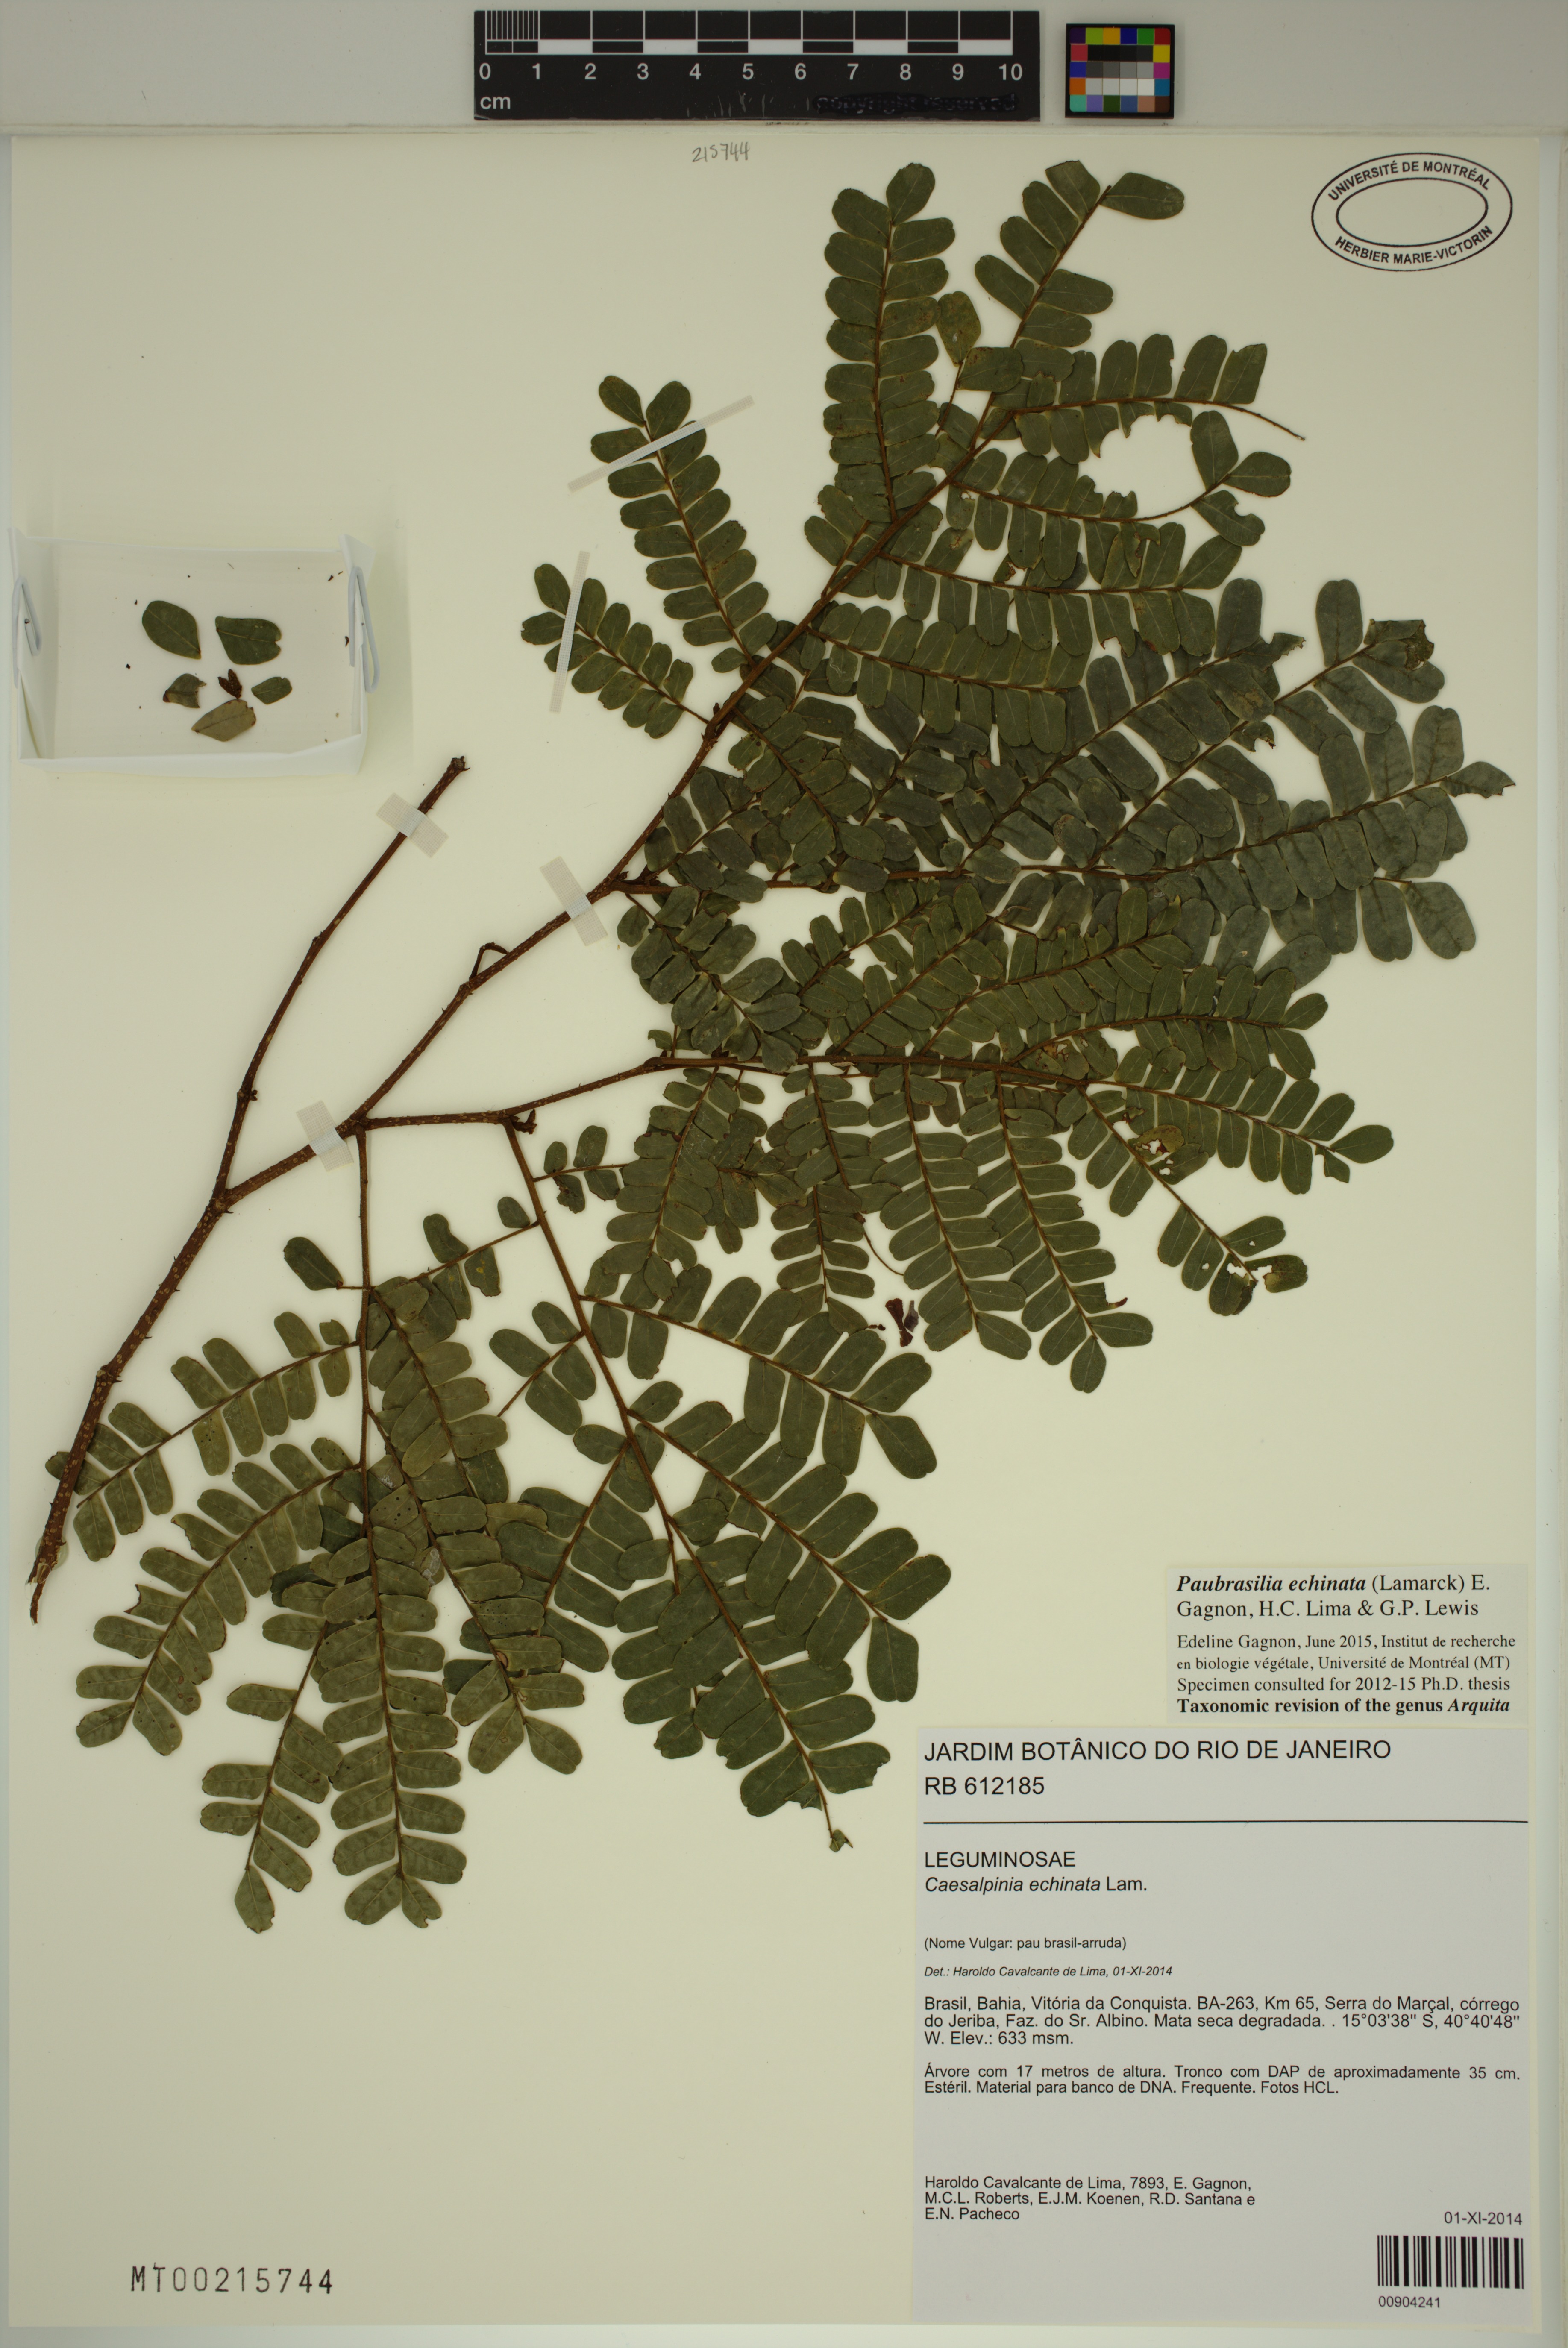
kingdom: Plantae
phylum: Tracheophyta
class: Magnoliopsida
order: Fabales
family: Fabaceae
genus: Paubrasilia
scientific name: Paubrasilia echinata
